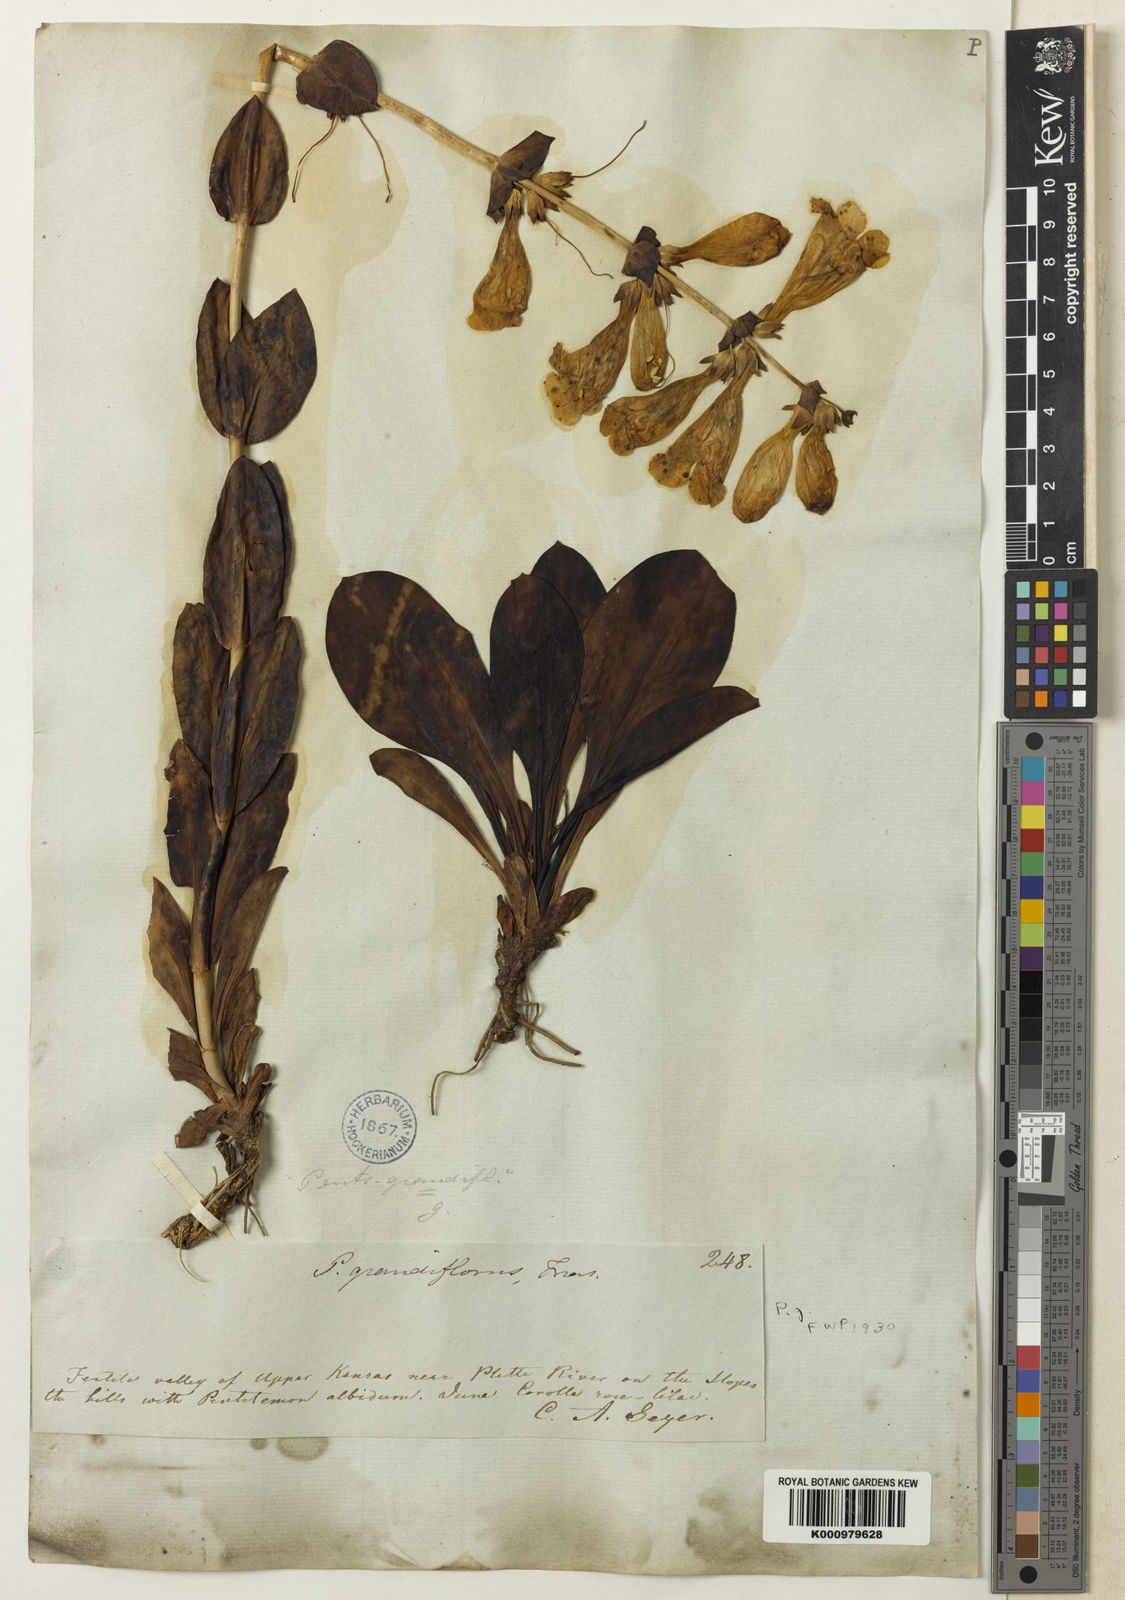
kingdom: Plantae
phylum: Tracheophyta
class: Magnoliopsida
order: Lamiales
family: Plantaginaceae
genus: Penstemon
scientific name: Penstemon bradburyi
